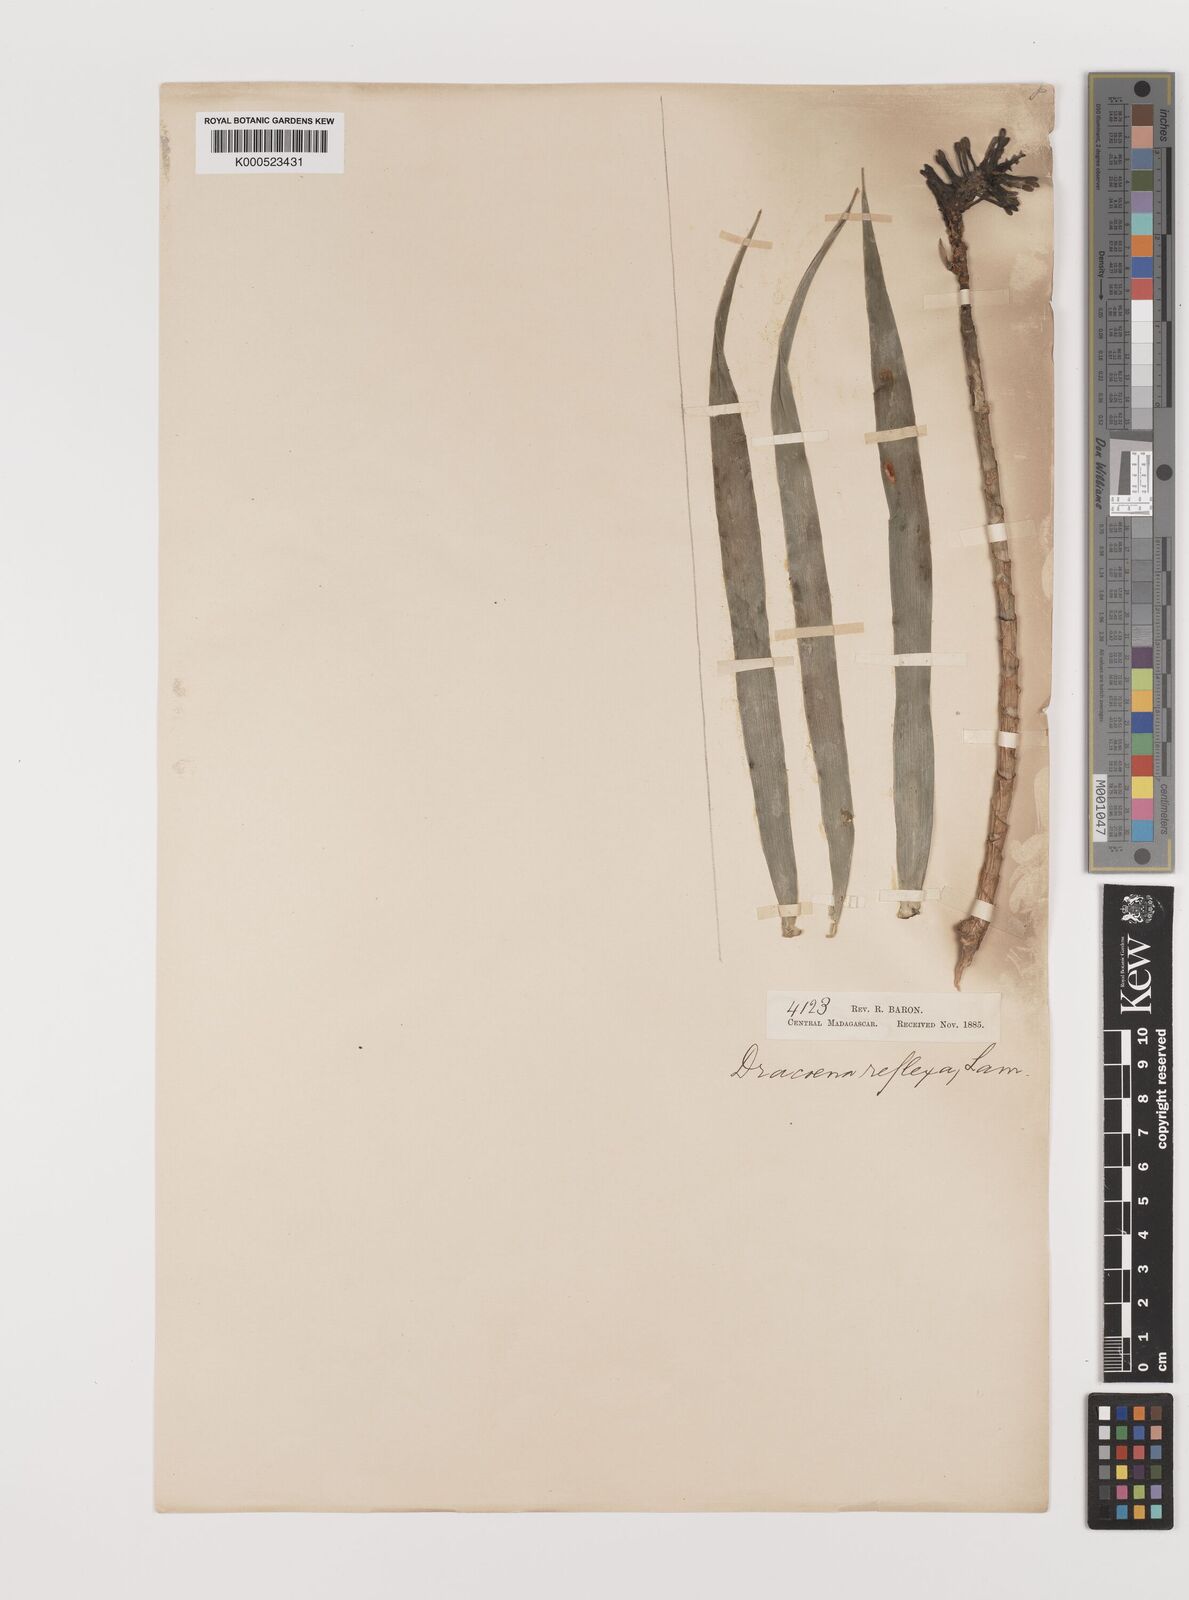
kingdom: Plantae
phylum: Tracheophyta
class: Liliopsida
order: Asparagales
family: Asparagaceae
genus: Dracaena
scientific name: Dracaena reflexa
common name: Song-of-india
